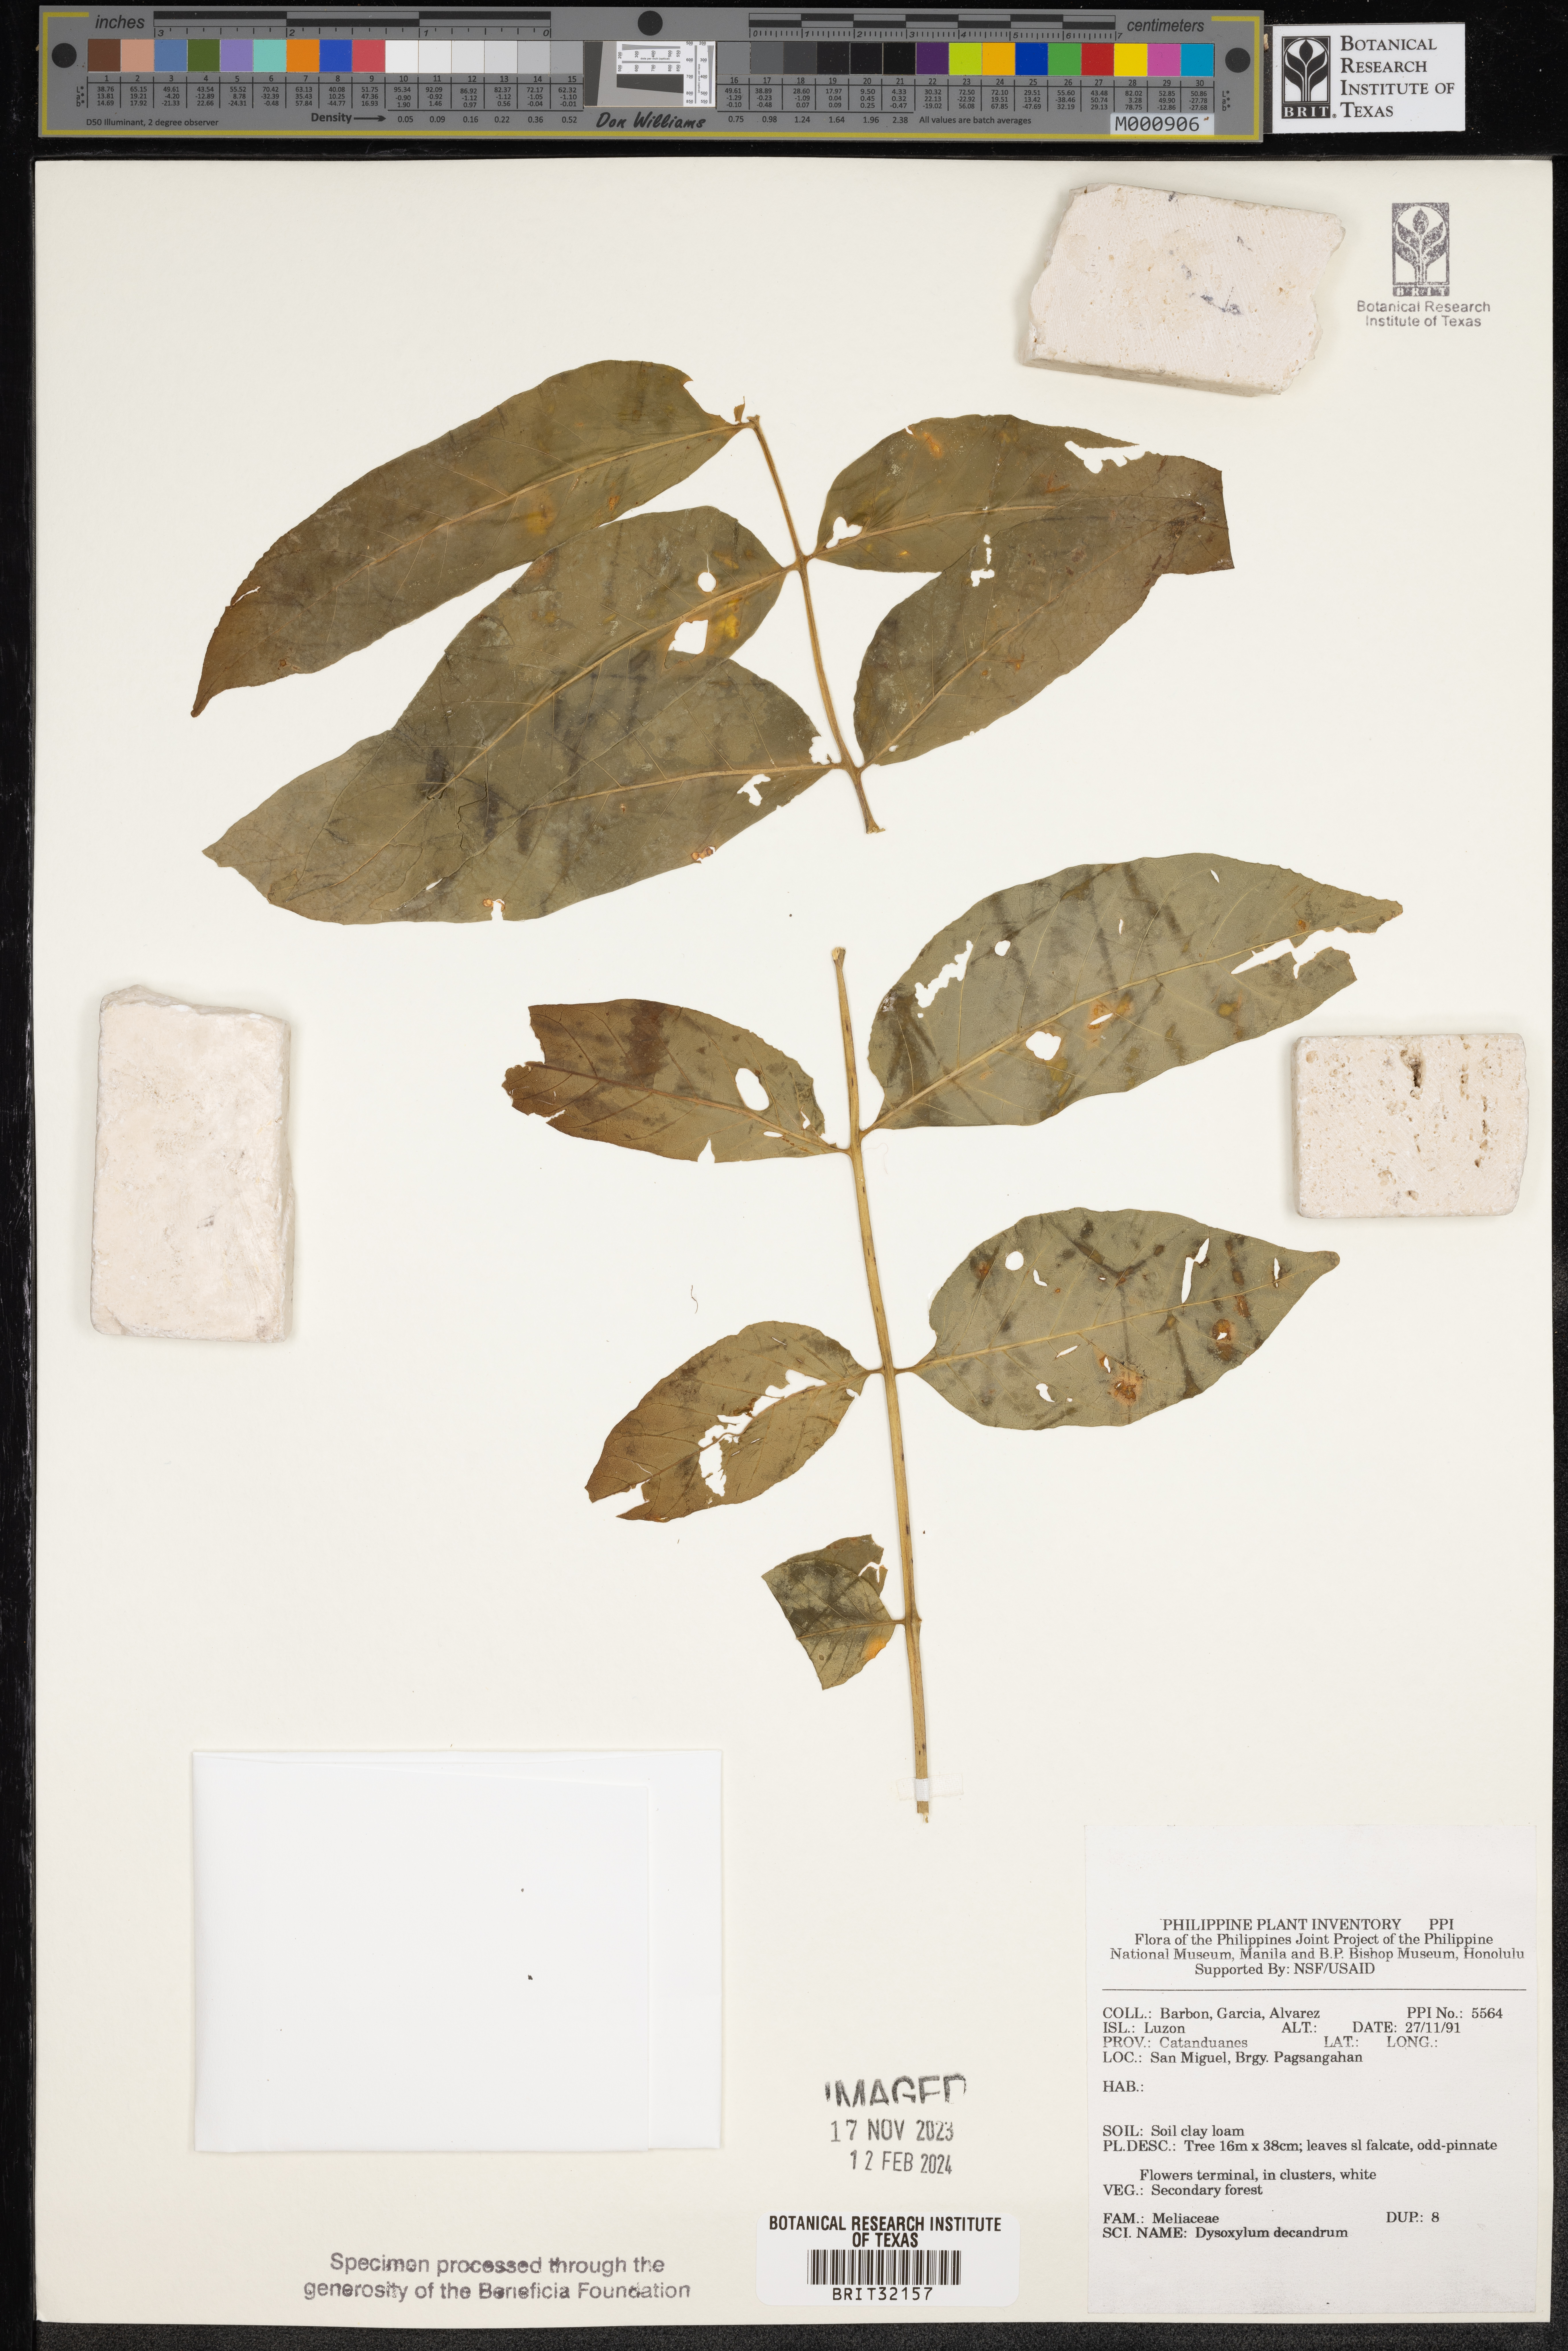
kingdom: Plantae
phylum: Tracheophyta
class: Magnoliopsida
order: Sapindales
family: Meliaceae
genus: Didymocheton
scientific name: Didymocheton gaudichaudianus
